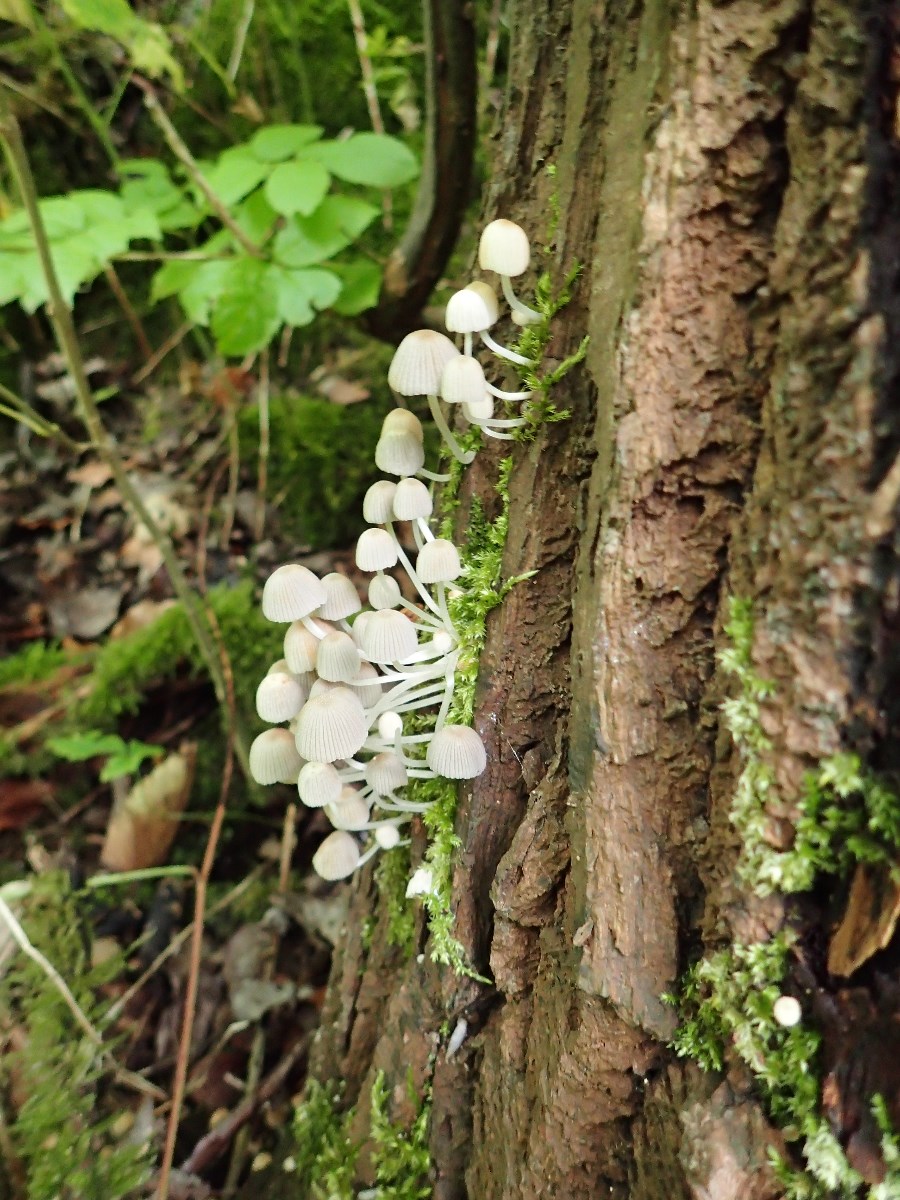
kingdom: Fungi
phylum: Basidiomycota
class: Agaricomycetes
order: Agaricales
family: Psathyrellaceae
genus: Coprinellus
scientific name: Coprinellus disseminatus
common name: bredsået blækhat
